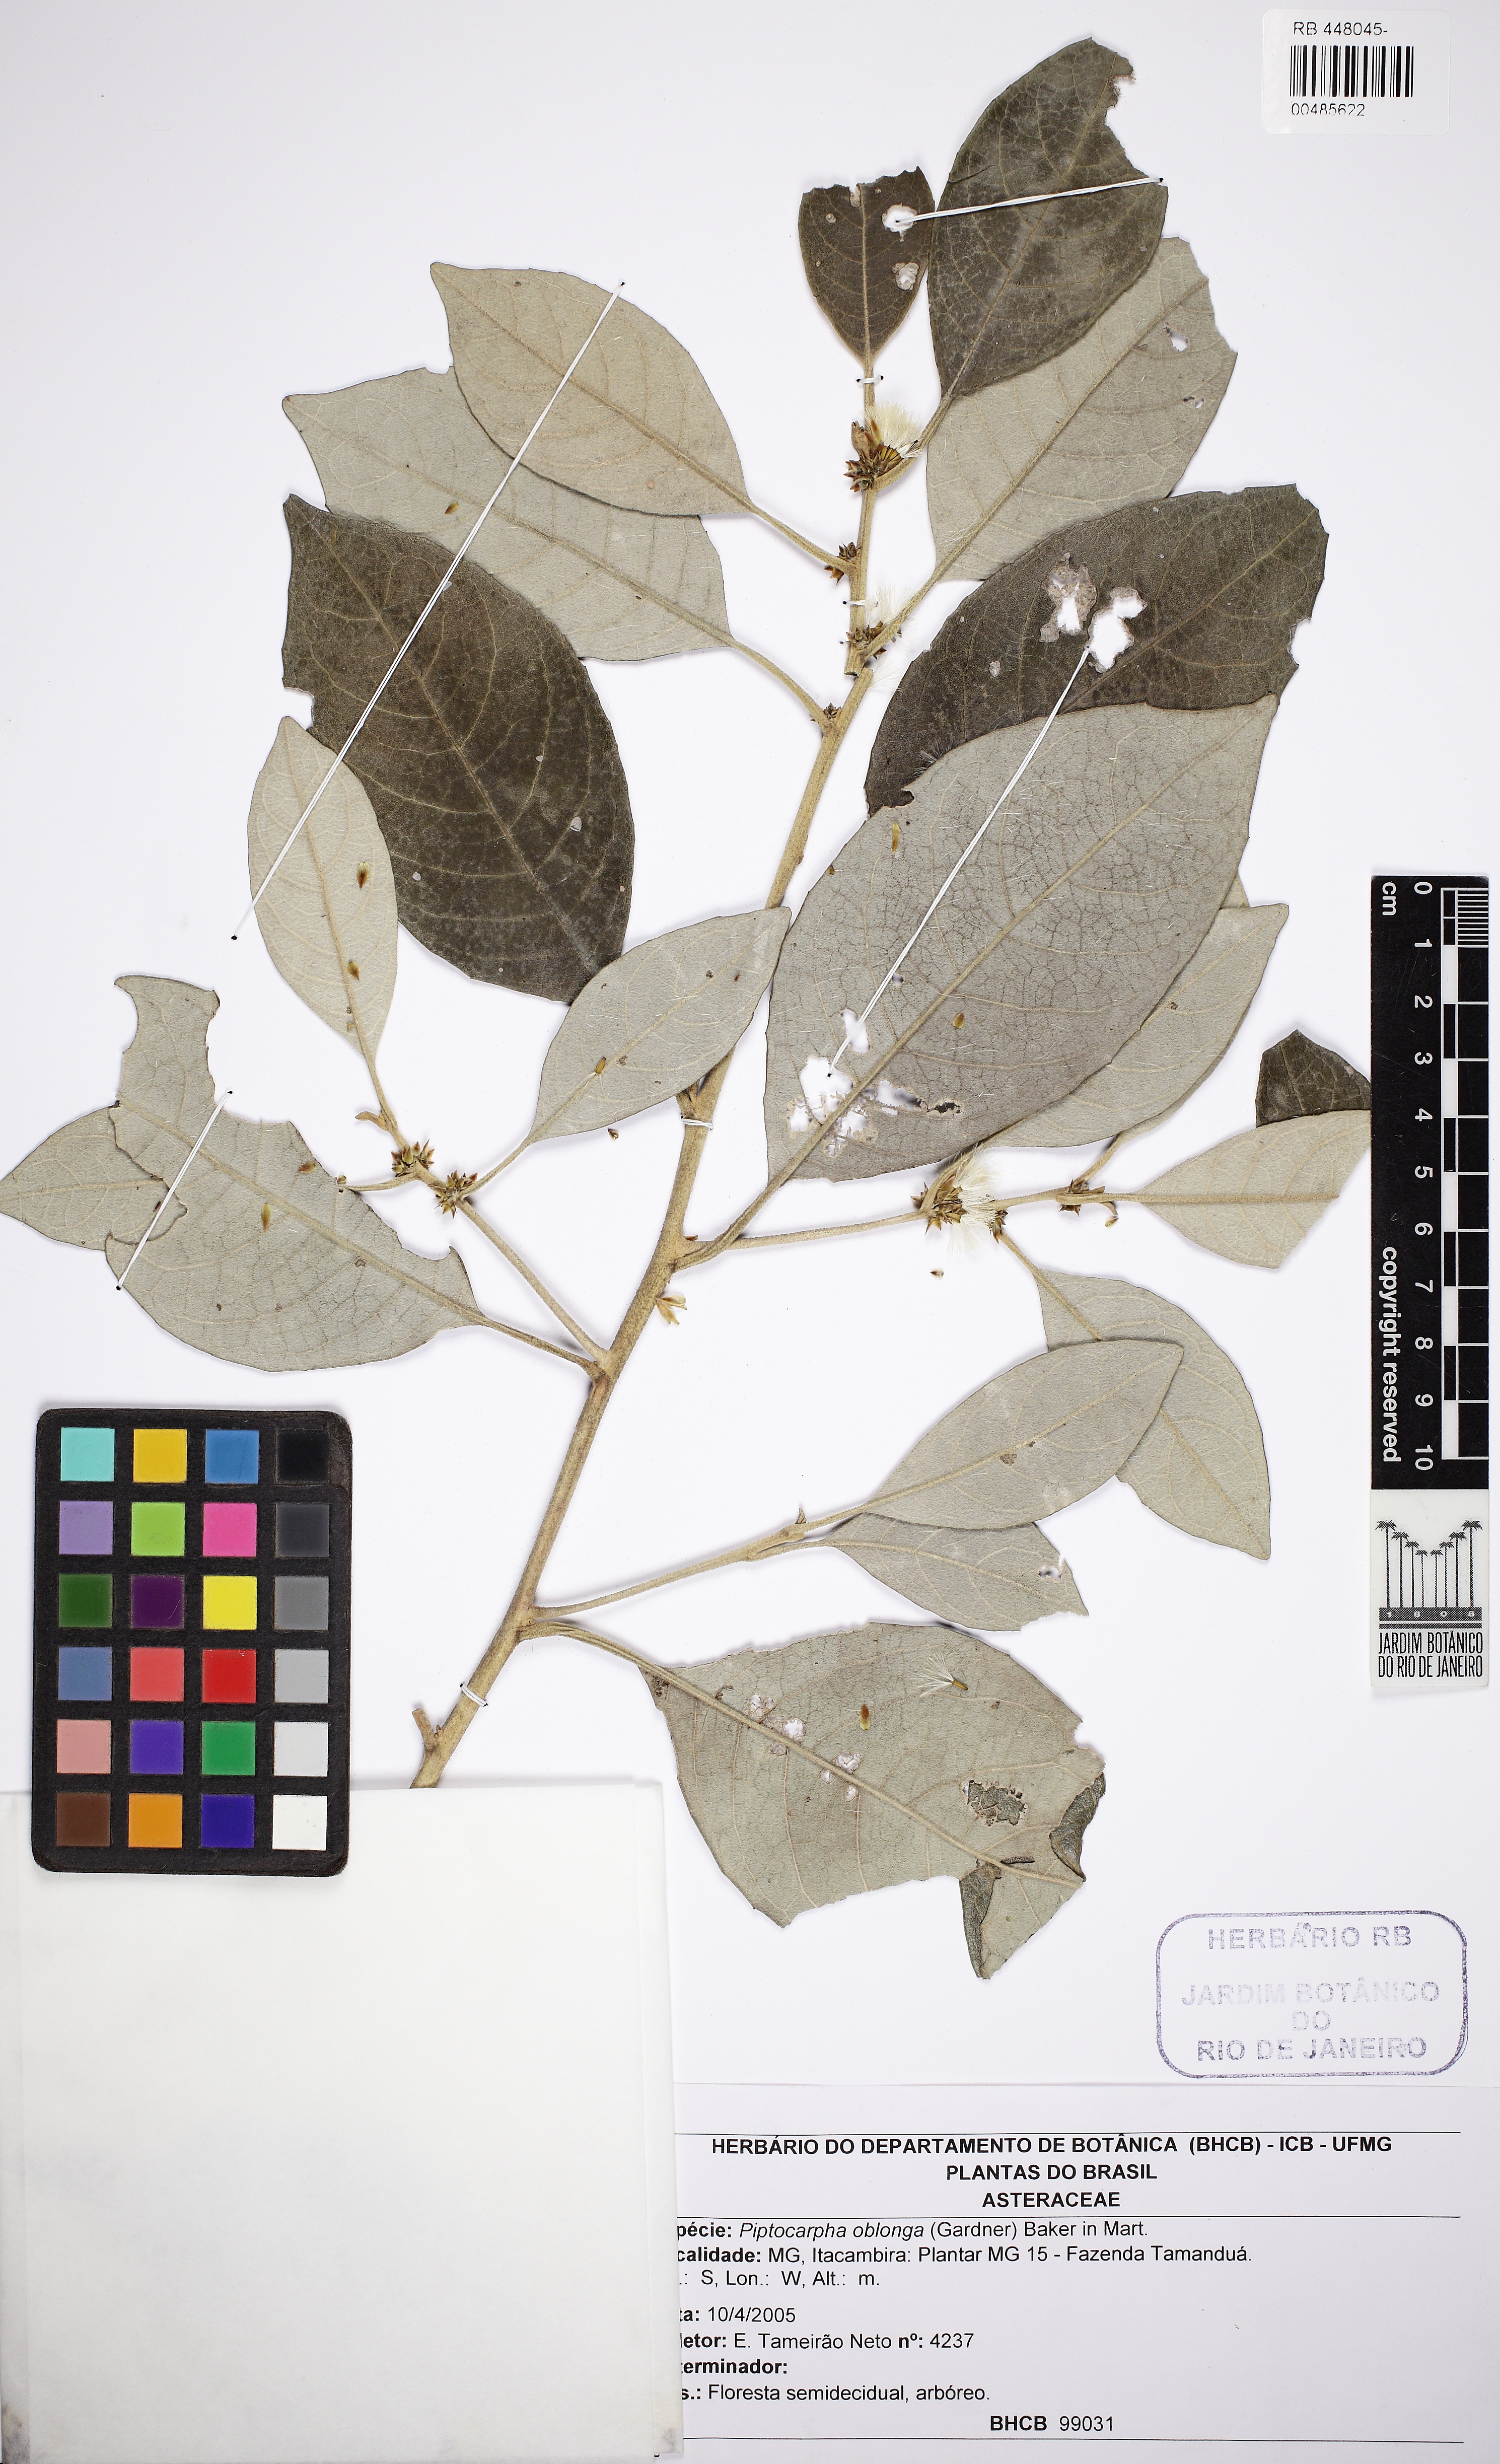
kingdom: Plantae
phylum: Tracheophyta
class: Magnoliopsida
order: Asterales
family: Asteraceae
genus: Piptocarpha
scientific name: Piptocarpha oblonga
